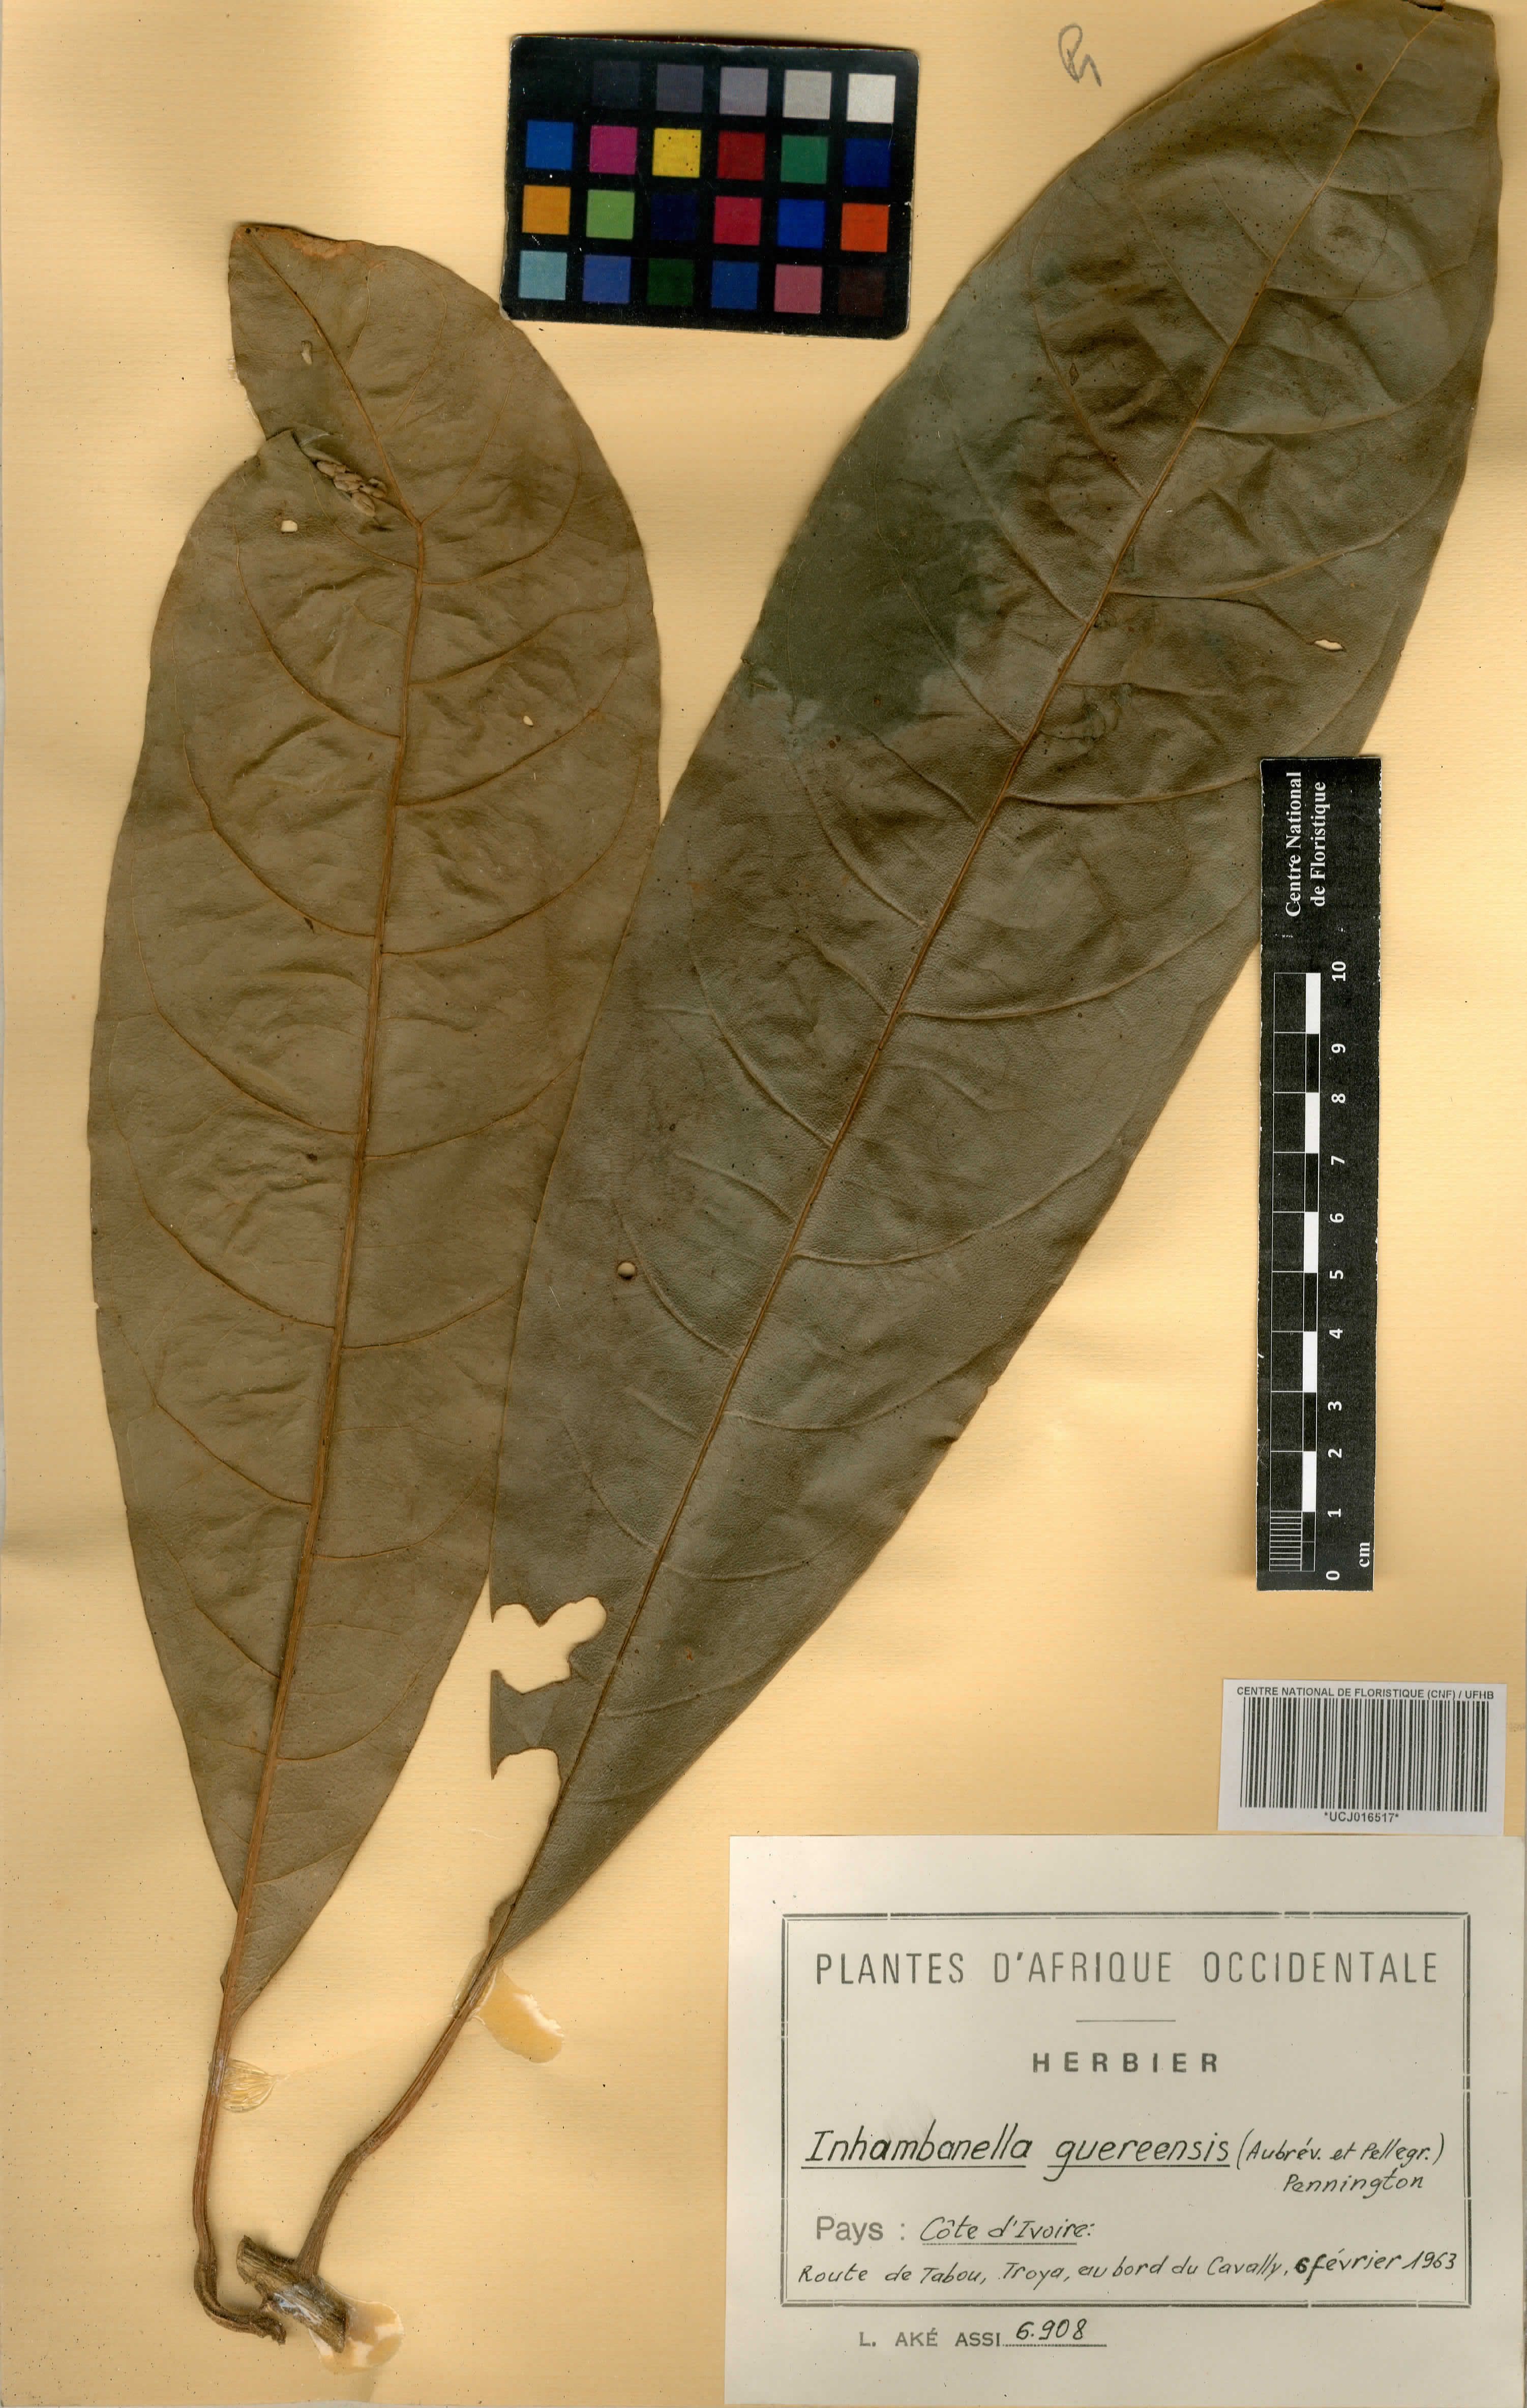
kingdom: Plantae
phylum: Tracheophyta
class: Magnoliopsida
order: Ericales
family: Sapotaceae
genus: Inhambanella
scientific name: Inhambanella guereensis
